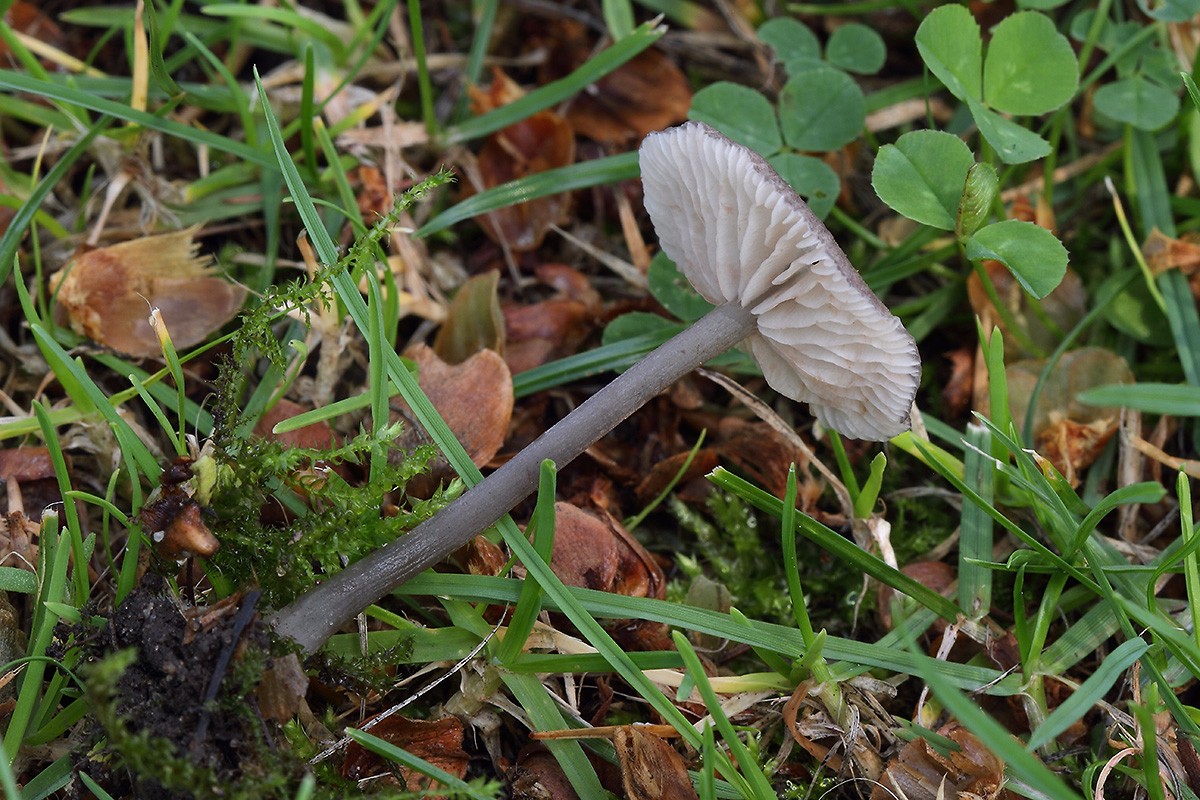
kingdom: Fungi
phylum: Basidiomycota
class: Agaricomycetes
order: Agaricales
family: Entolomataceae
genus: Entoloma
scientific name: Entoloma incarnatofuscescens
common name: tragt-rødblad
